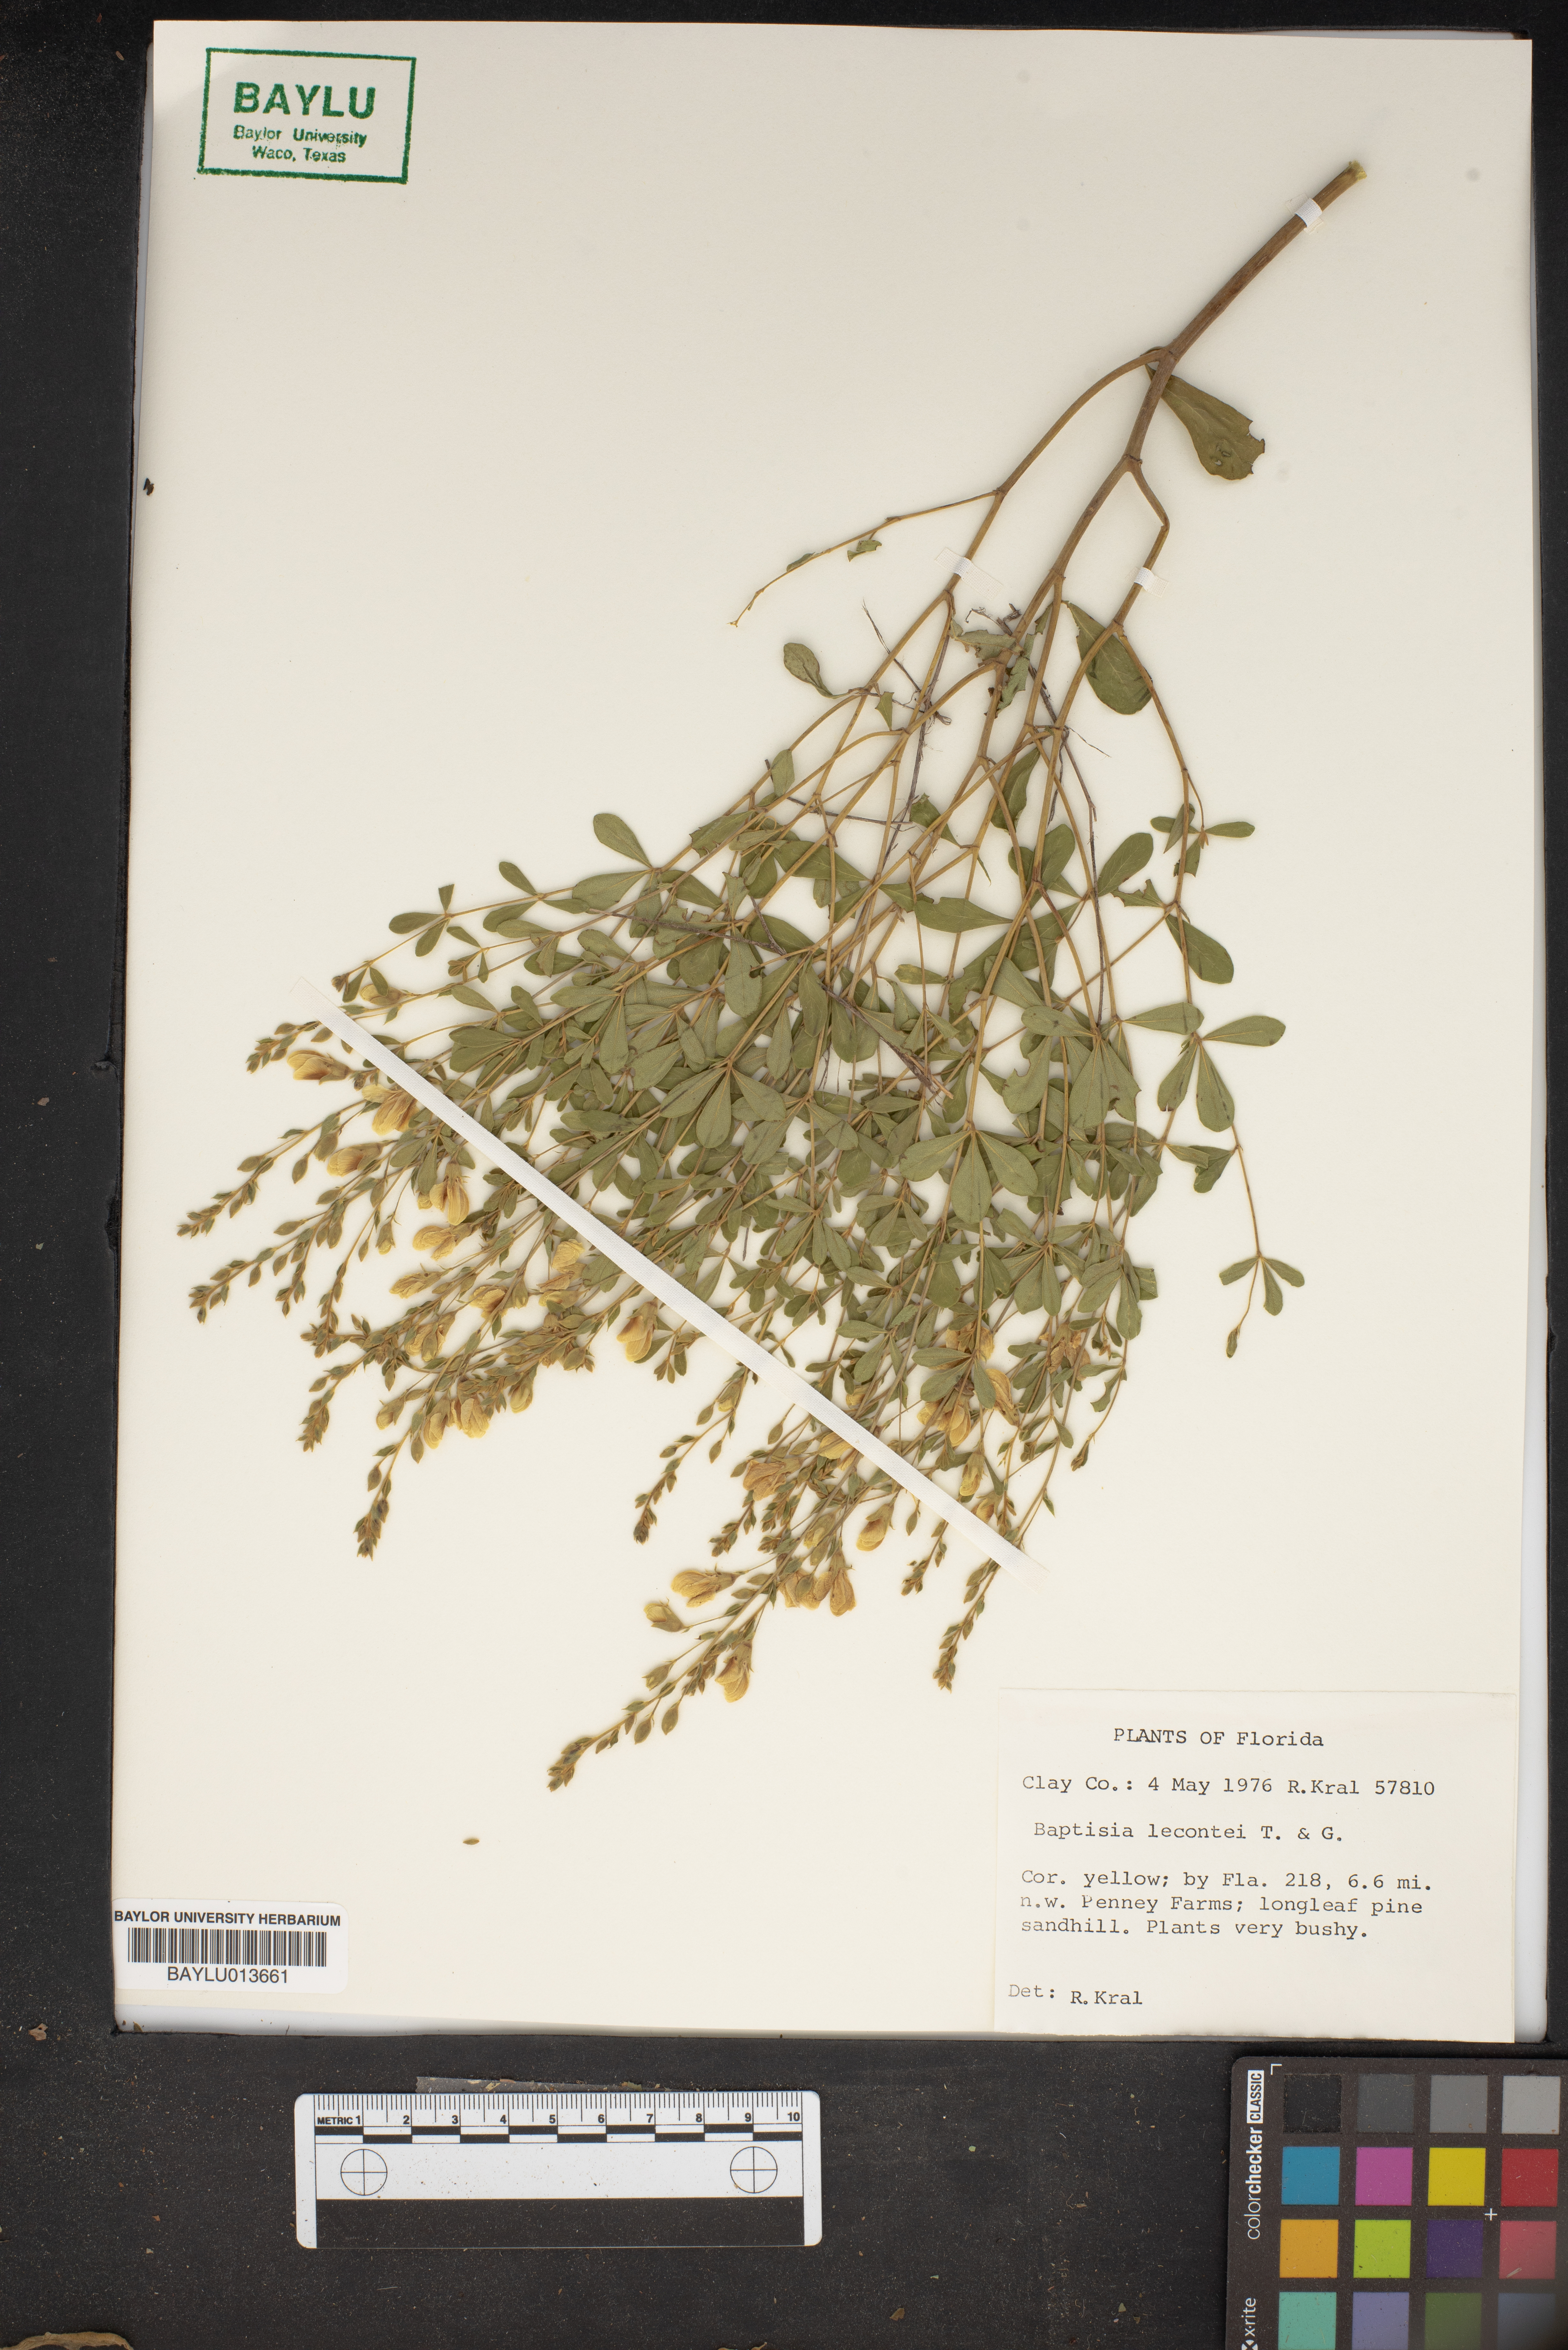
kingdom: Plantae
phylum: Tracheophyta
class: Magnoliopsida
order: Fabales
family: Fabaceae
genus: Baptisia
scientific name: Baptisia lecontei
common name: Pineland wild indigo
